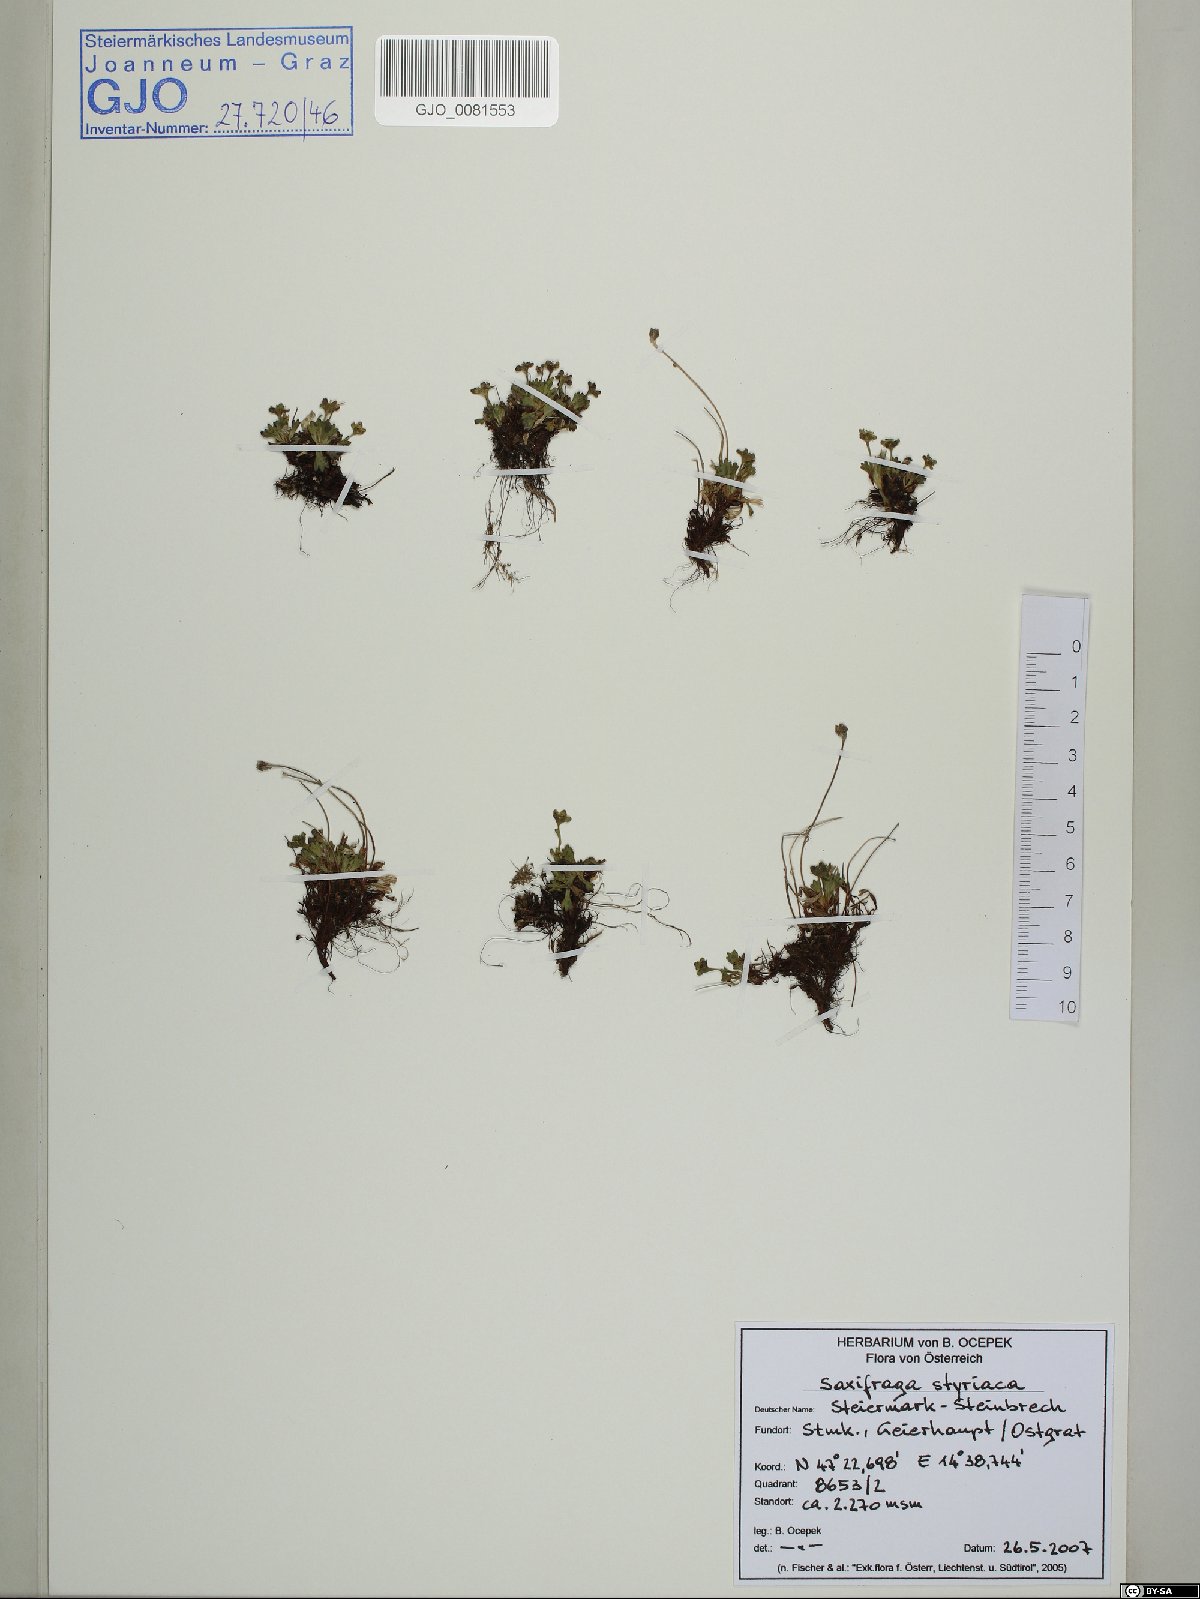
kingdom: Plantae
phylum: Tracheophyta
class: Magnoliopsida
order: Saxifragales
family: Saxifragaceae
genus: Saxifraga
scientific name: Saxifraga styriaca
